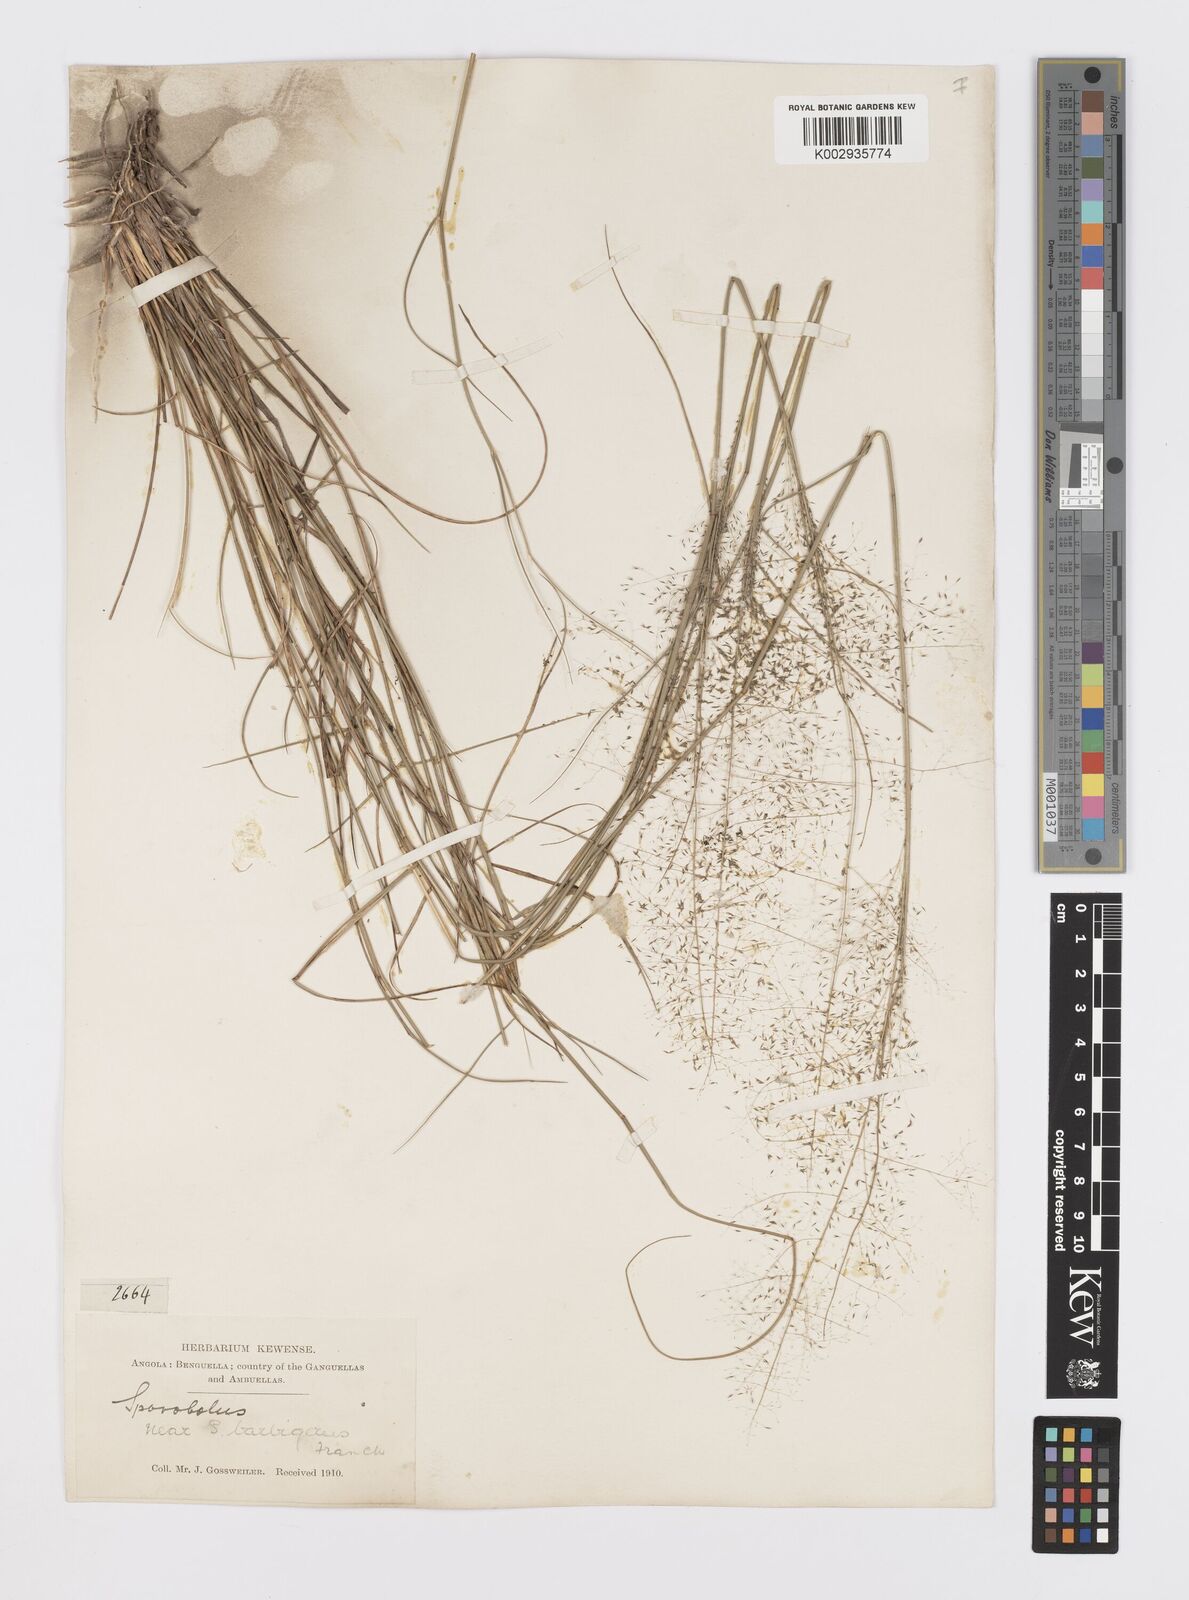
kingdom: Plantae
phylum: Tracheophyta
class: Liliopsida
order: Poales
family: Poaceae
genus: Sporobolus
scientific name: Sporobolus welwitschii
